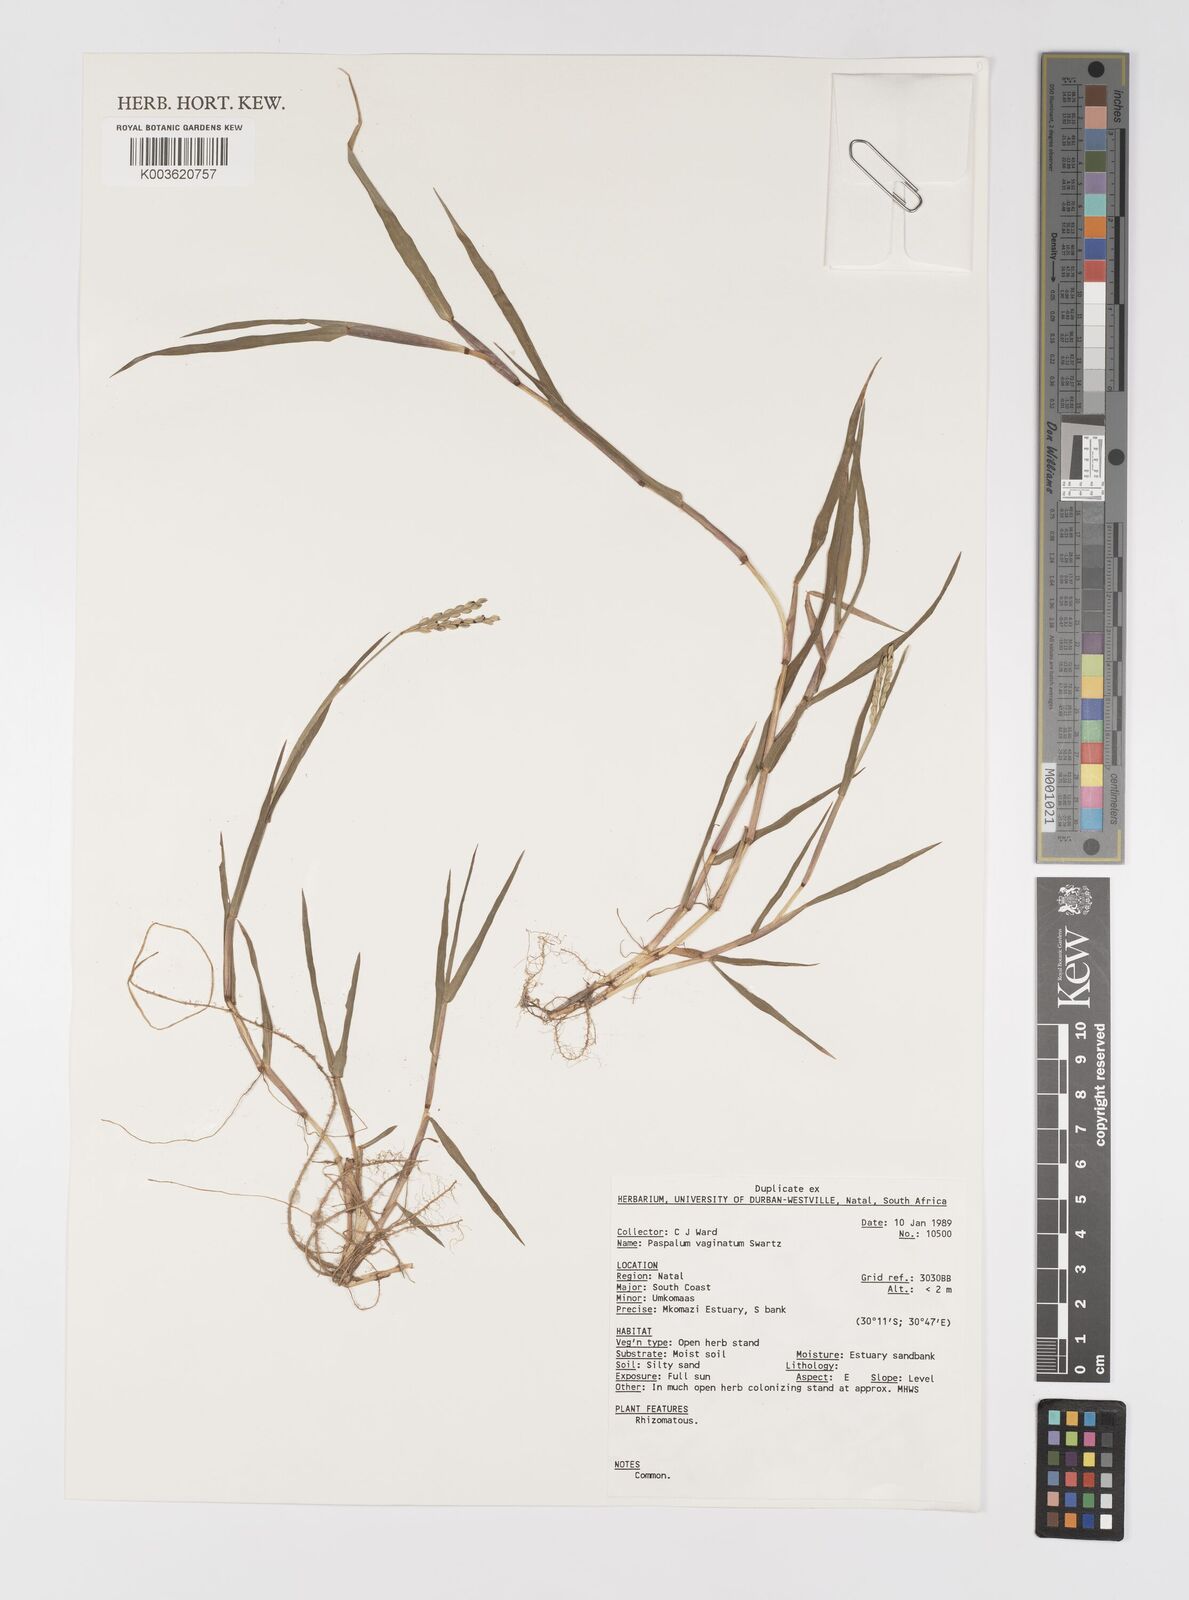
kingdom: Plantae
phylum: Tracheophyta
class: Liliopsida
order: Poales
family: Poaceae
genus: Paspalum
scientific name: Paspalum vaginatum
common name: Seashore paspalum
